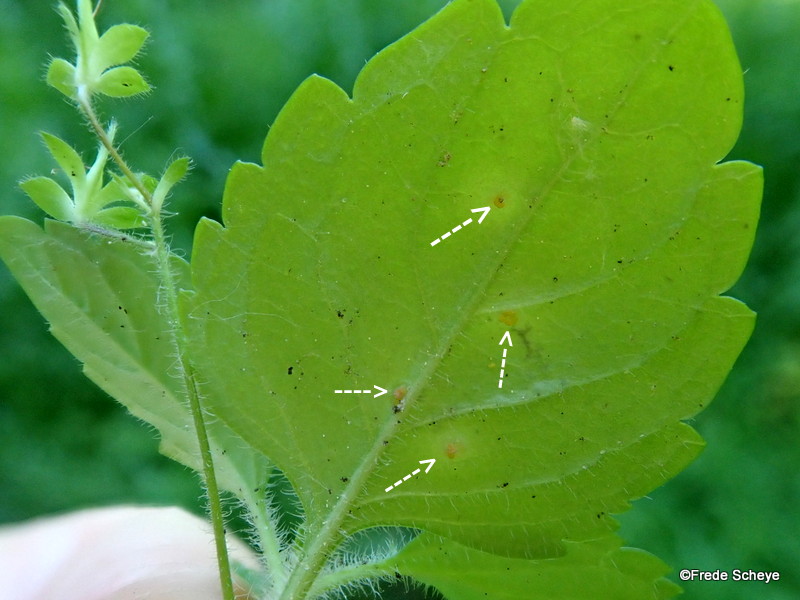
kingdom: Fungi
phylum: Basidiomycota
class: Pucciniomycetes
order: Pucciniales
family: Pucciniaceae
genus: Puccinia
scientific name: Puccinia albulensis
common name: Alpine veronica rust
